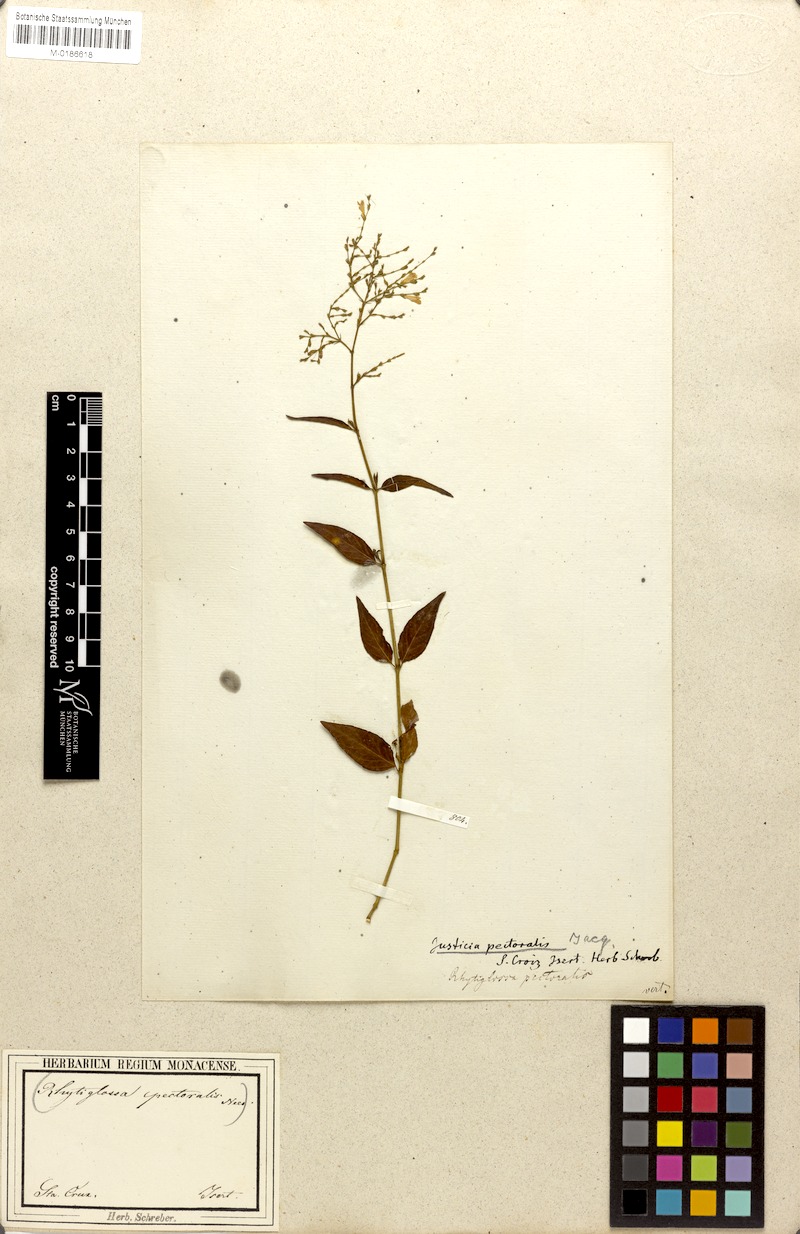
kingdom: Plantae
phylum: Tracheophyta
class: Magnoliopsida
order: Lamiales
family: Acanthaceae
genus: Dianthera
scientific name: Dianthera pectoralis
